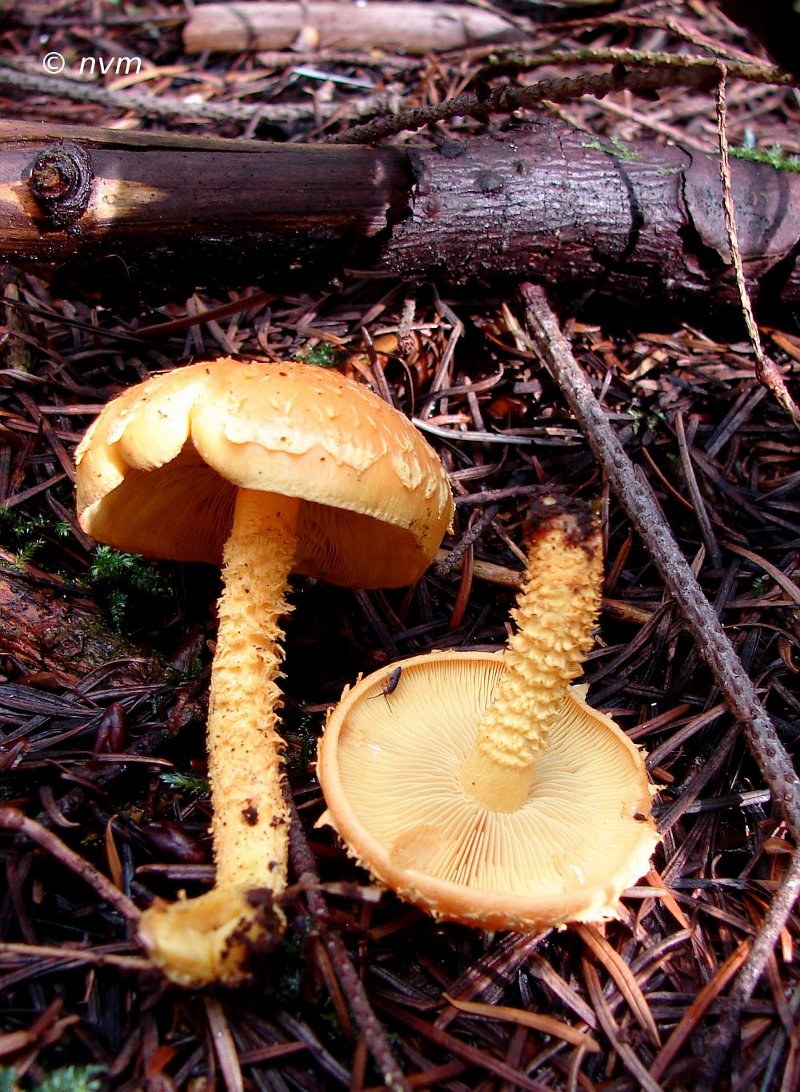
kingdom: Fungi
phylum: Basidiomycota
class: Agaricomycetes
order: Agaricales
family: Strophariaceae
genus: Pholiota
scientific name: Pholiota flammans
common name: flamme-skælhat
